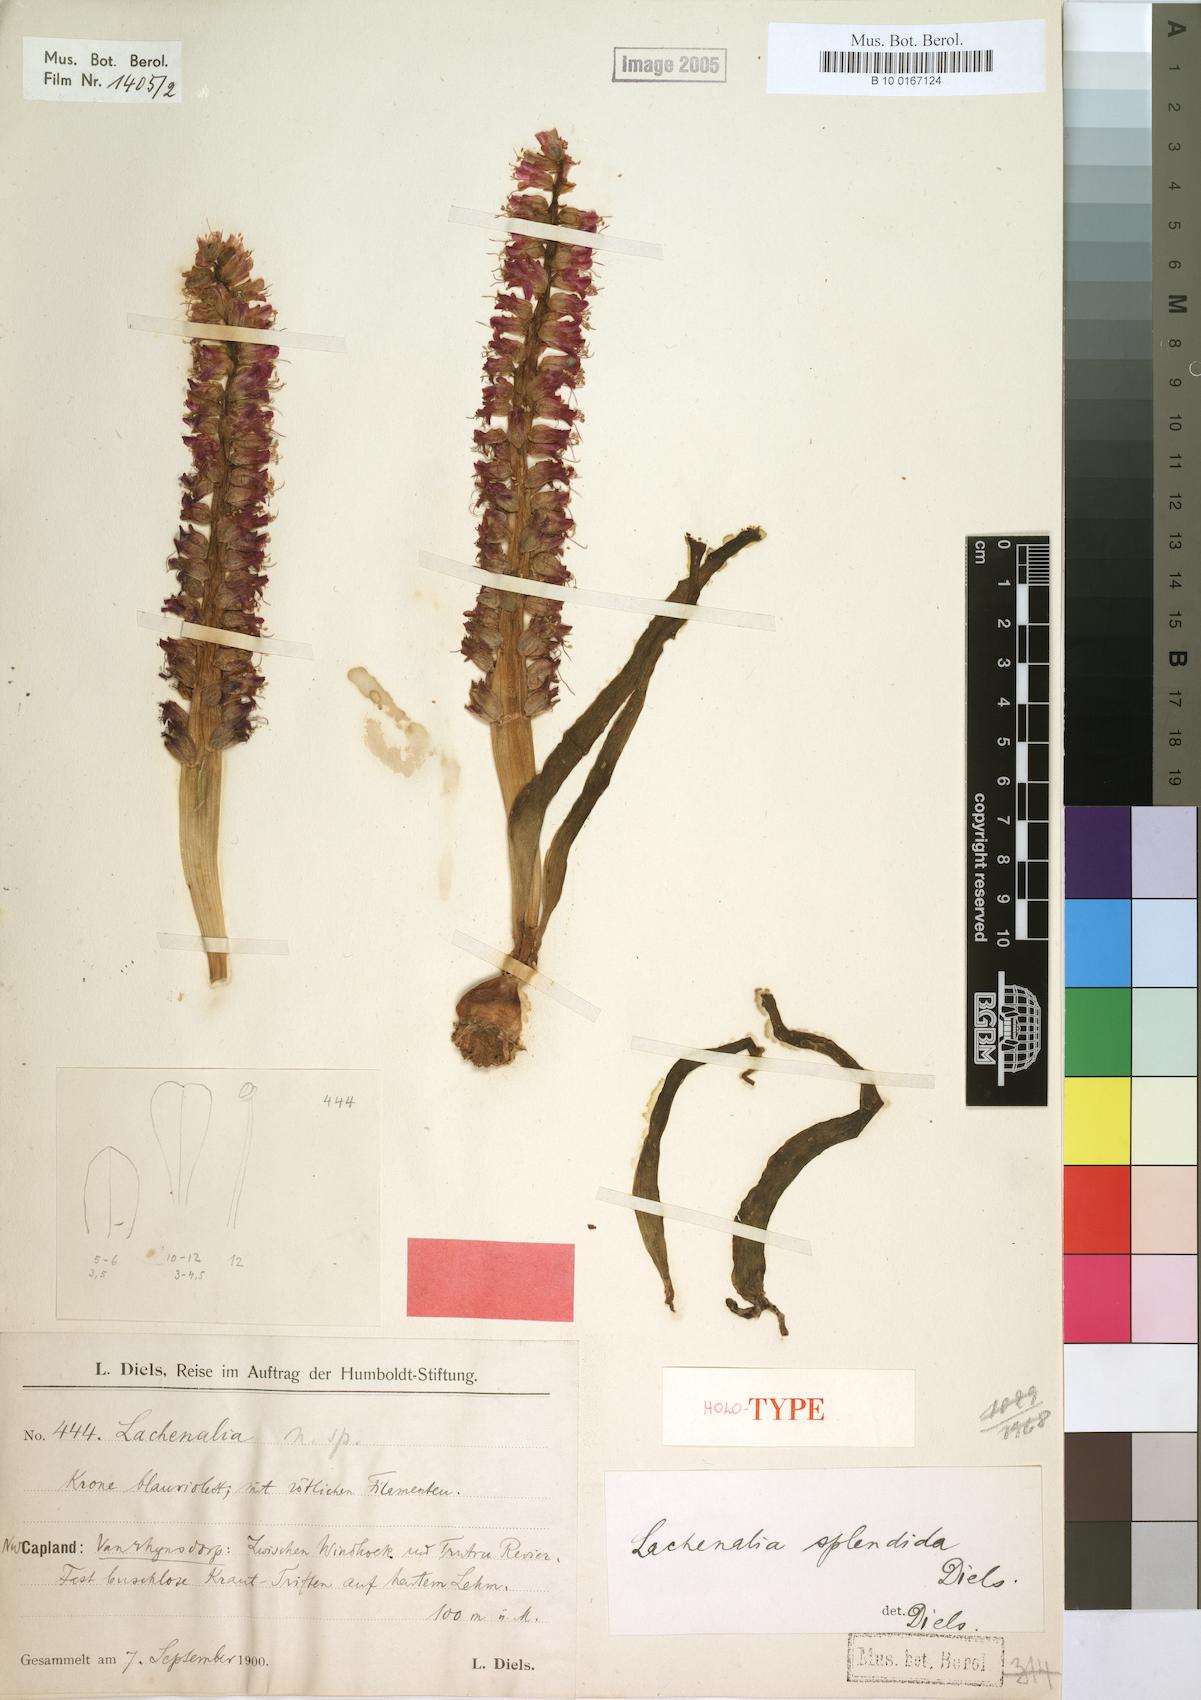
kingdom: Plantae
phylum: Tracheophyta
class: Liliopsida
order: Asparagales
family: Asparagaceae
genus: Lachenalia
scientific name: Lachenalia splendida
